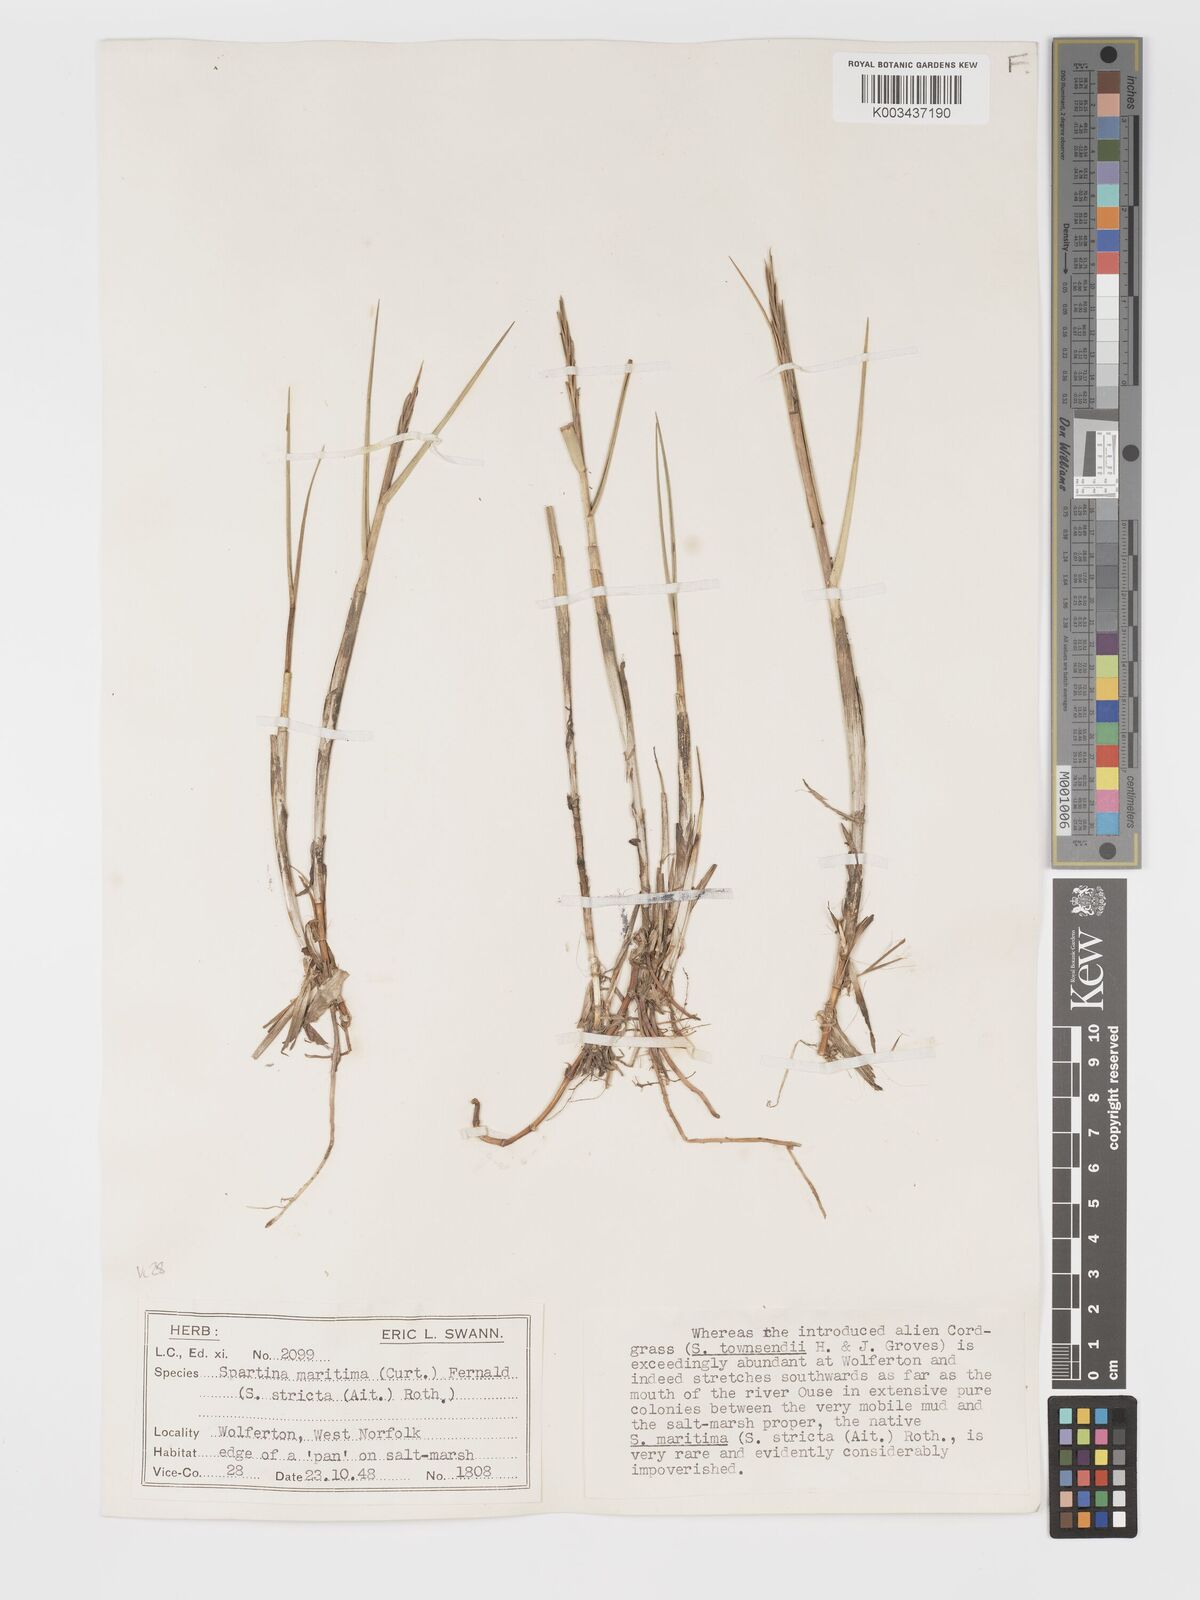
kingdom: Plantae
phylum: Tracheophyta
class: Liliopsida
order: Poales
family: Poaceae
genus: Sporobolus
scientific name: Sporobolus maritimus
